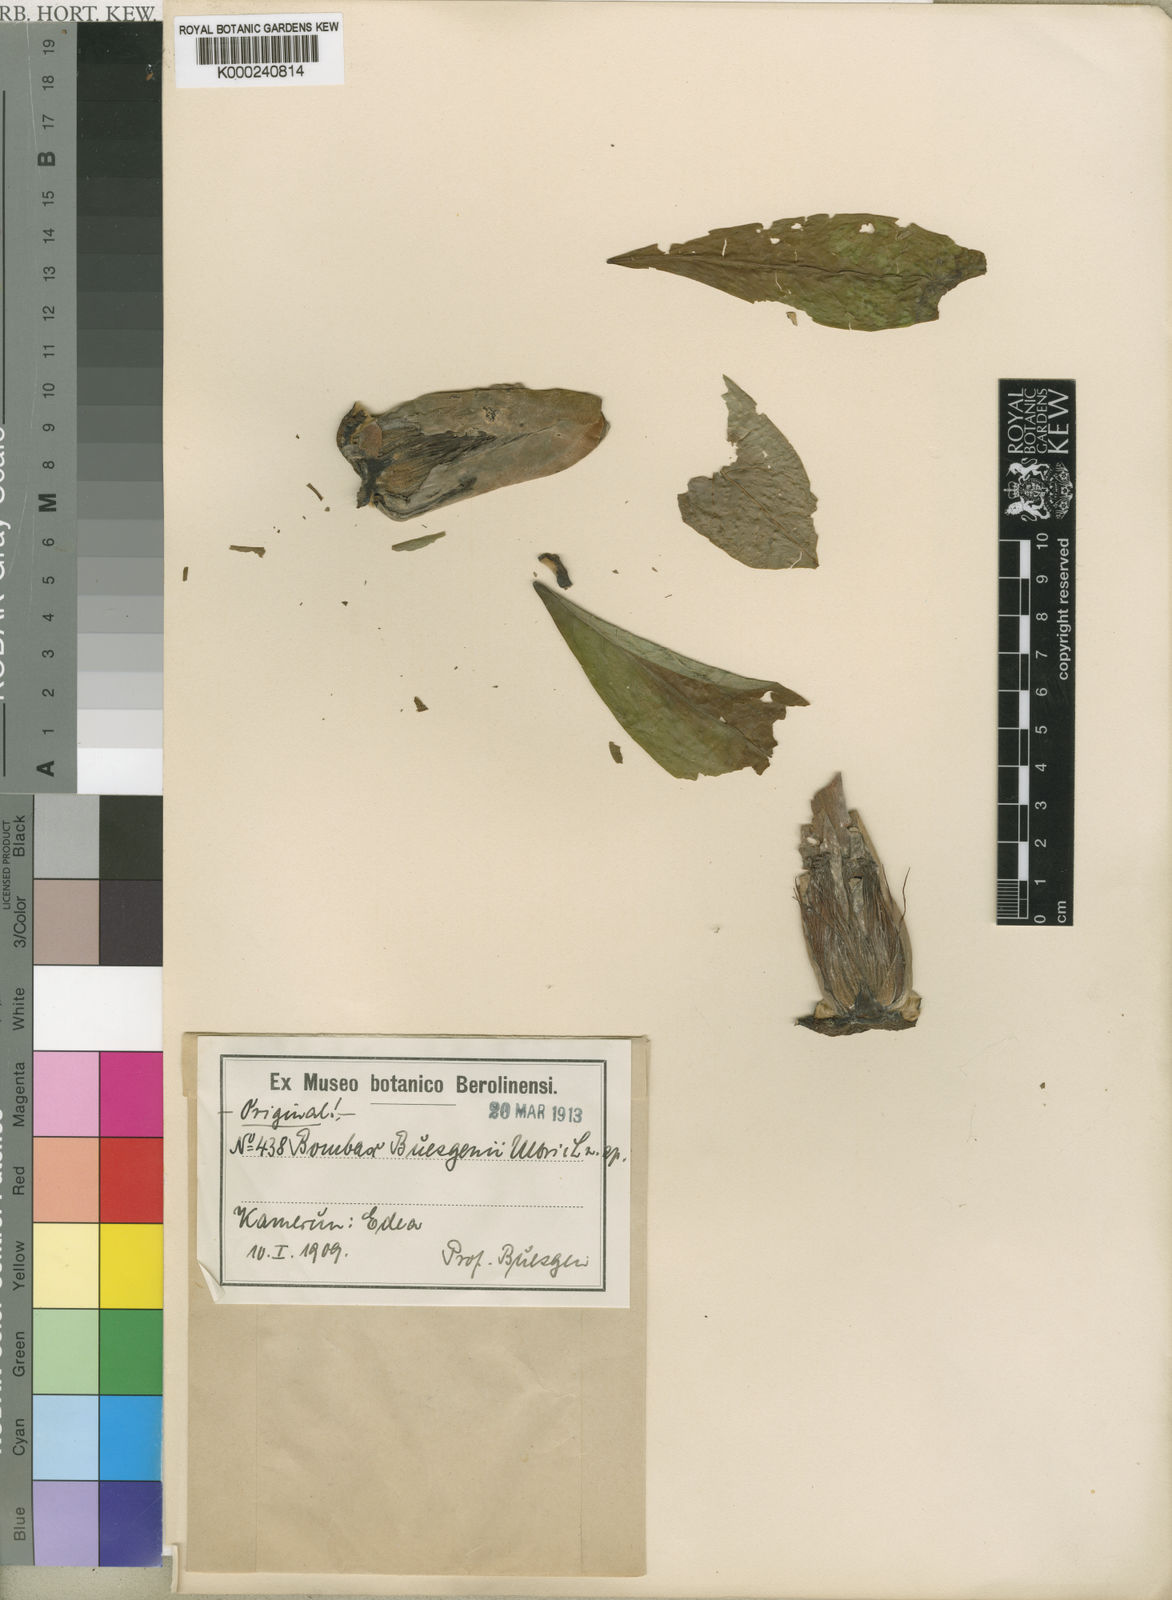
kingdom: Plantae
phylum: Tracheophyta
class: Magnoliopsida
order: Malvales
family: Malvaceae
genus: Bombax
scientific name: Bombax buonopozense
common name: Gold coast bombax
